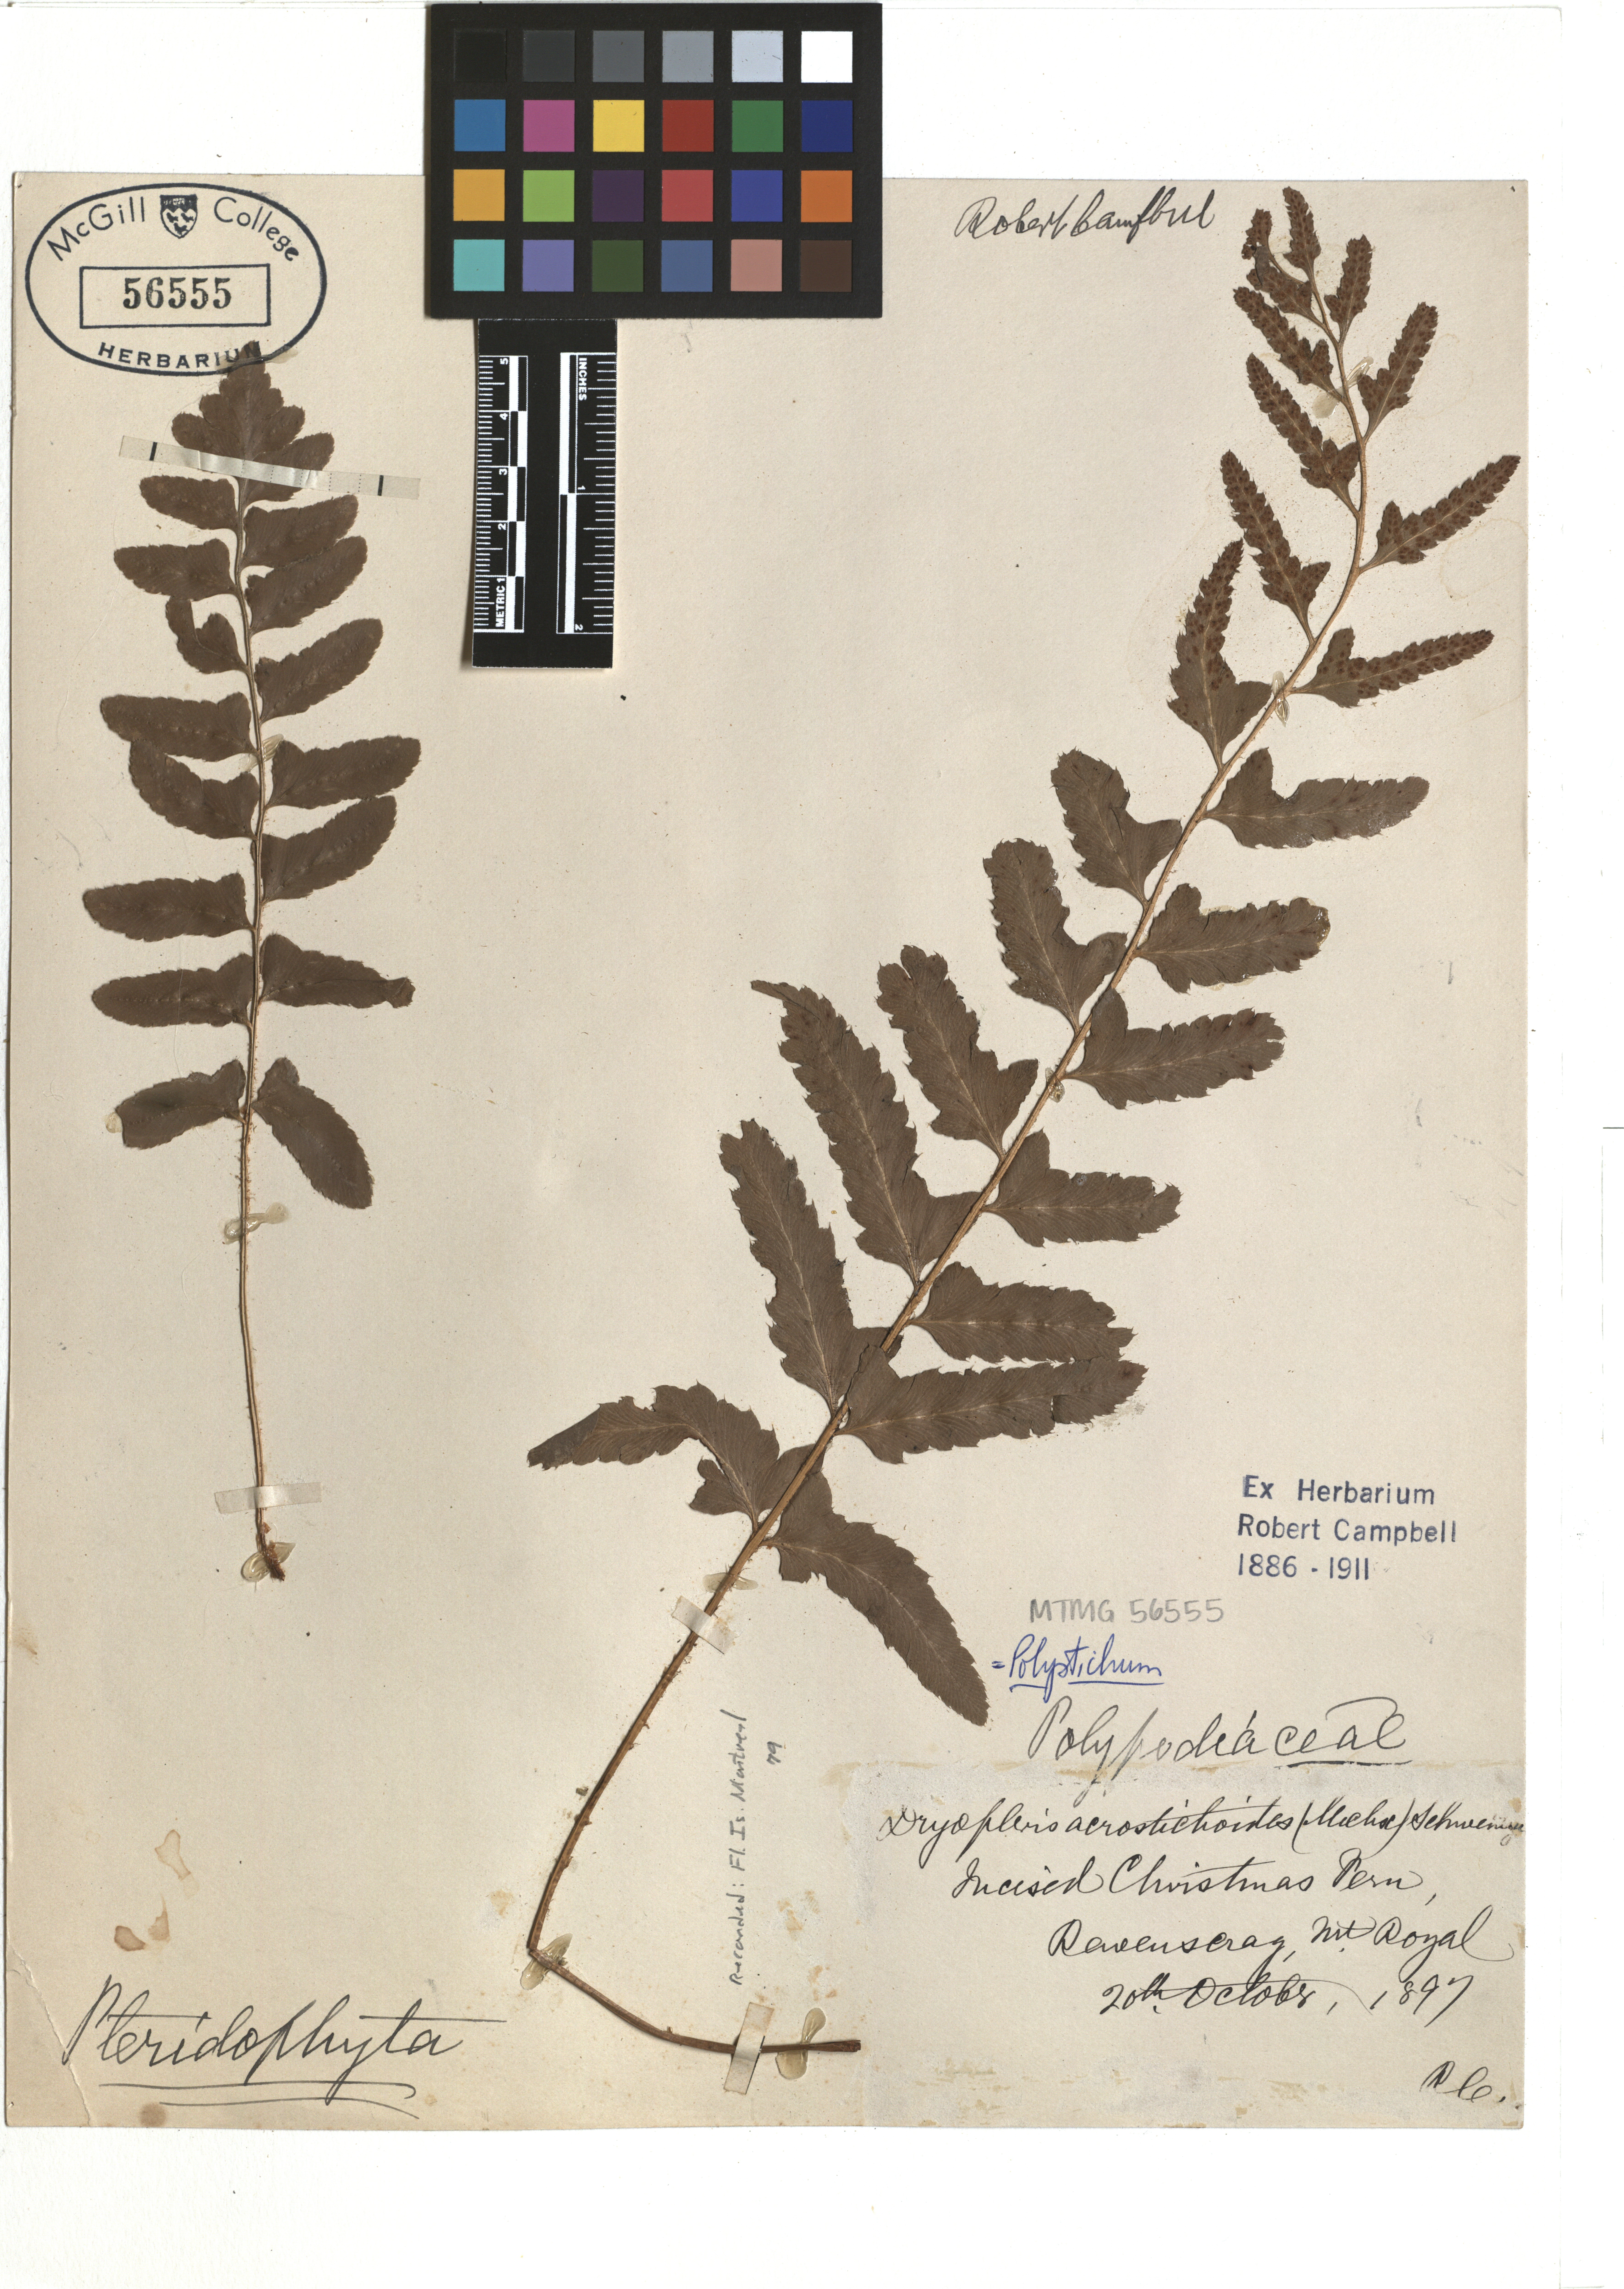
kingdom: Plantae
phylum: Tracheophyta
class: Polypodiopsida
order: Polypodiales
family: Dryopteridaceae
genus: Polystichum
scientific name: Polystichum acrostichoides
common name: Christmas fern
